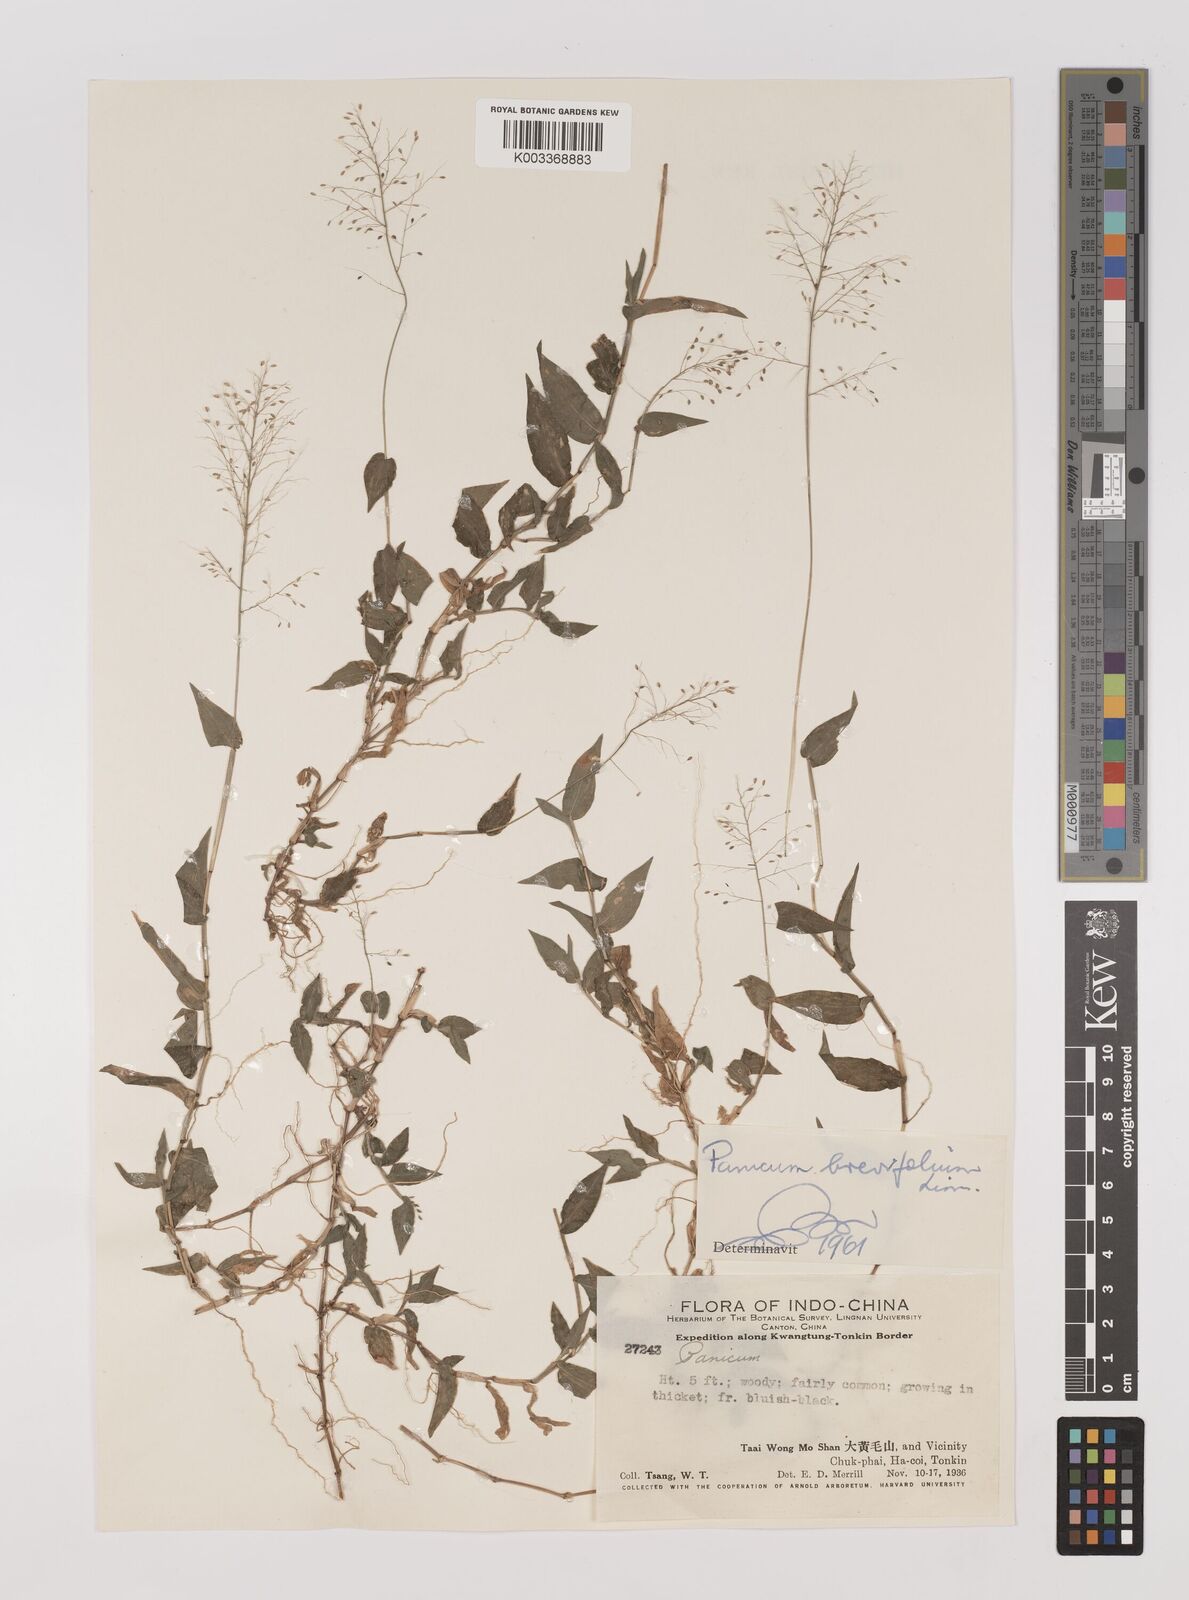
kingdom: Plantae
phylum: Tracheophyta
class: Liliopsida
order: Poales
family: Poaceae
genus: Panicum
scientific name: Panicum brevifolium
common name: Shortleaf panic grass
